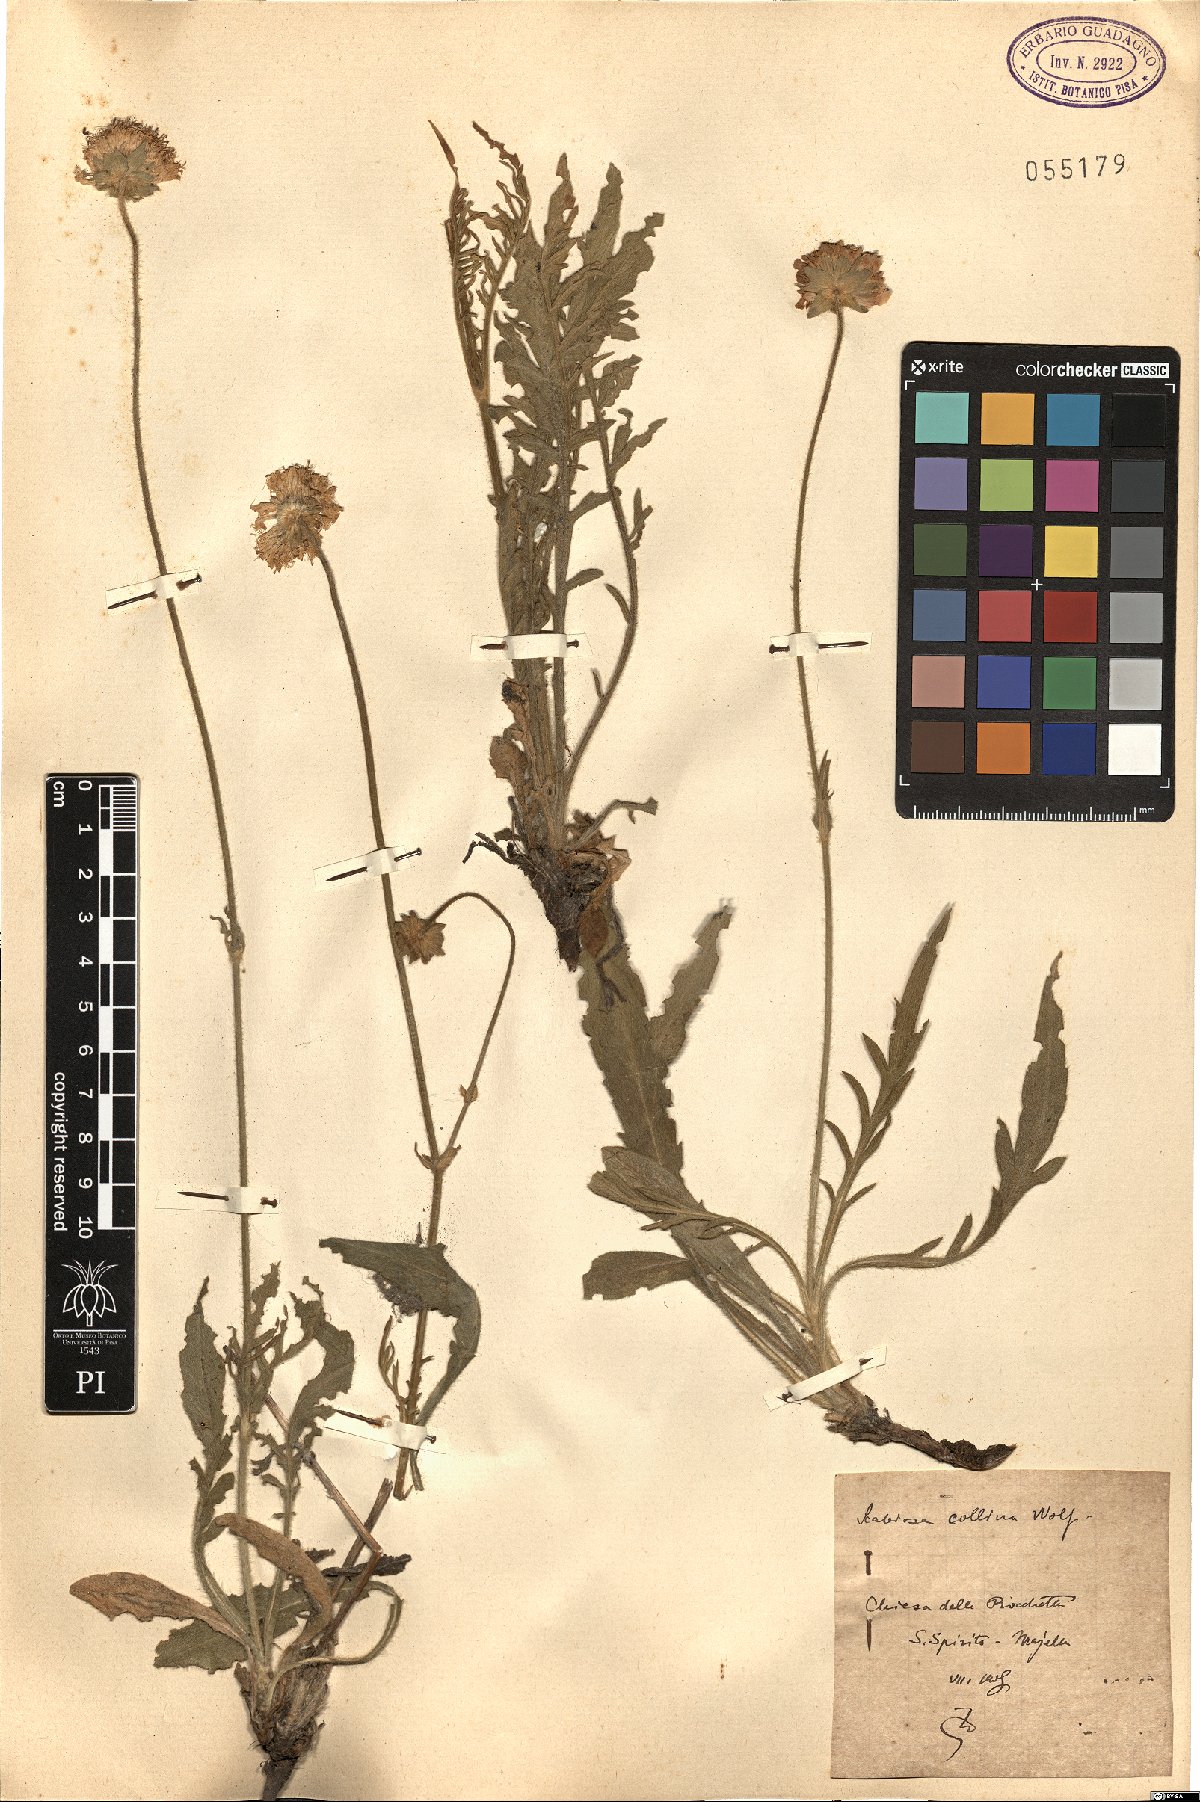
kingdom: Plantae
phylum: Tracheophyta
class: Magnoliopsida
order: Dipsacales
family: Caprifoliaceae
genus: Knautia
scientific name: Knautia collina
